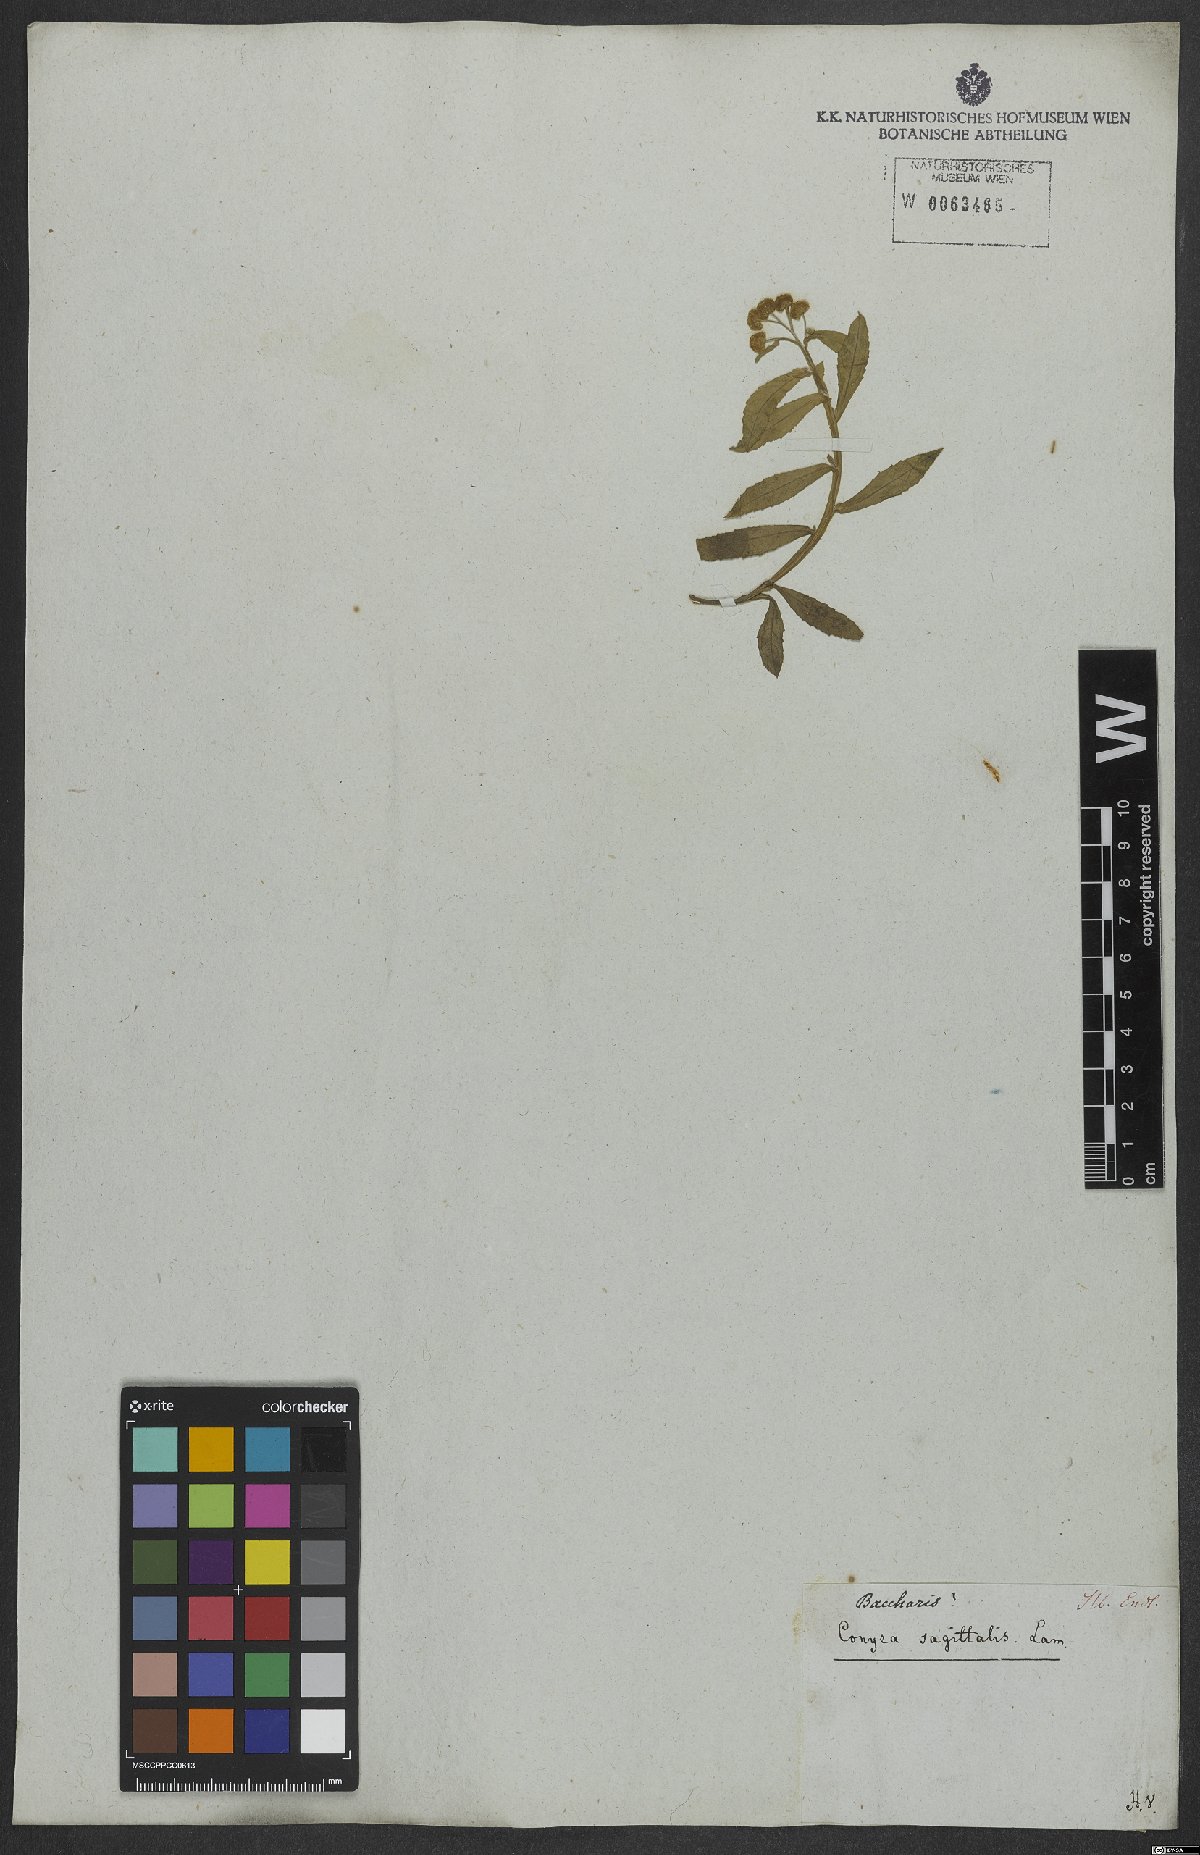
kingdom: Plantae
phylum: Tracheophyta
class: Magnoliopsida
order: Asterales
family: Asteraceae
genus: Pluchea
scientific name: Pluchea sagittalis
